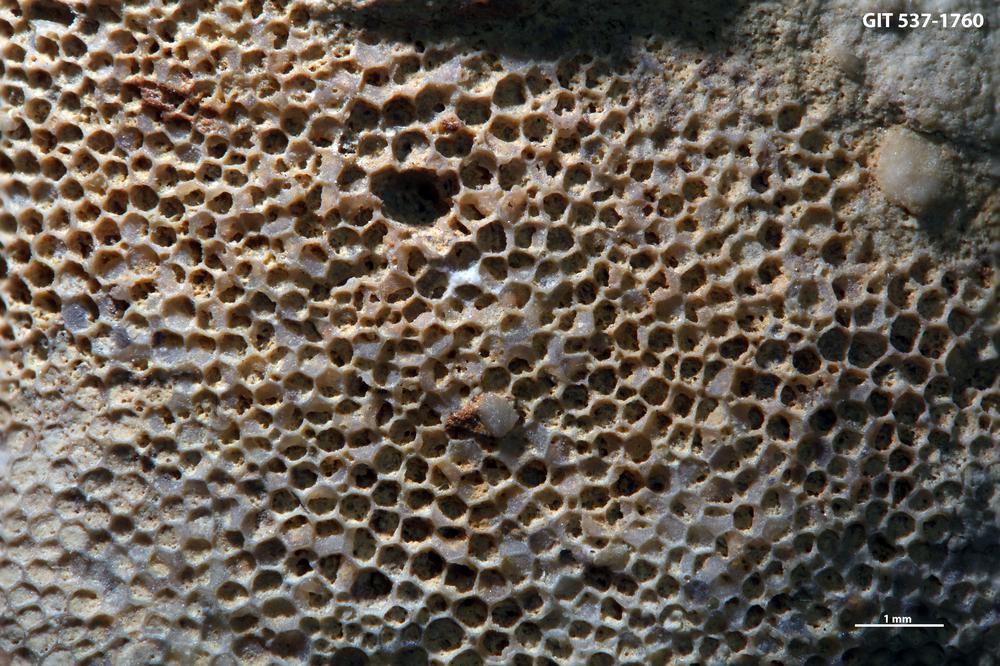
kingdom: Animalia
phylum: Bryozoa
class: Stenolaemata
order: Esthonioporata
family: Esthonioporidae
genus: Esthoniopora
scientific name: Esthoniopora subsphaerica
